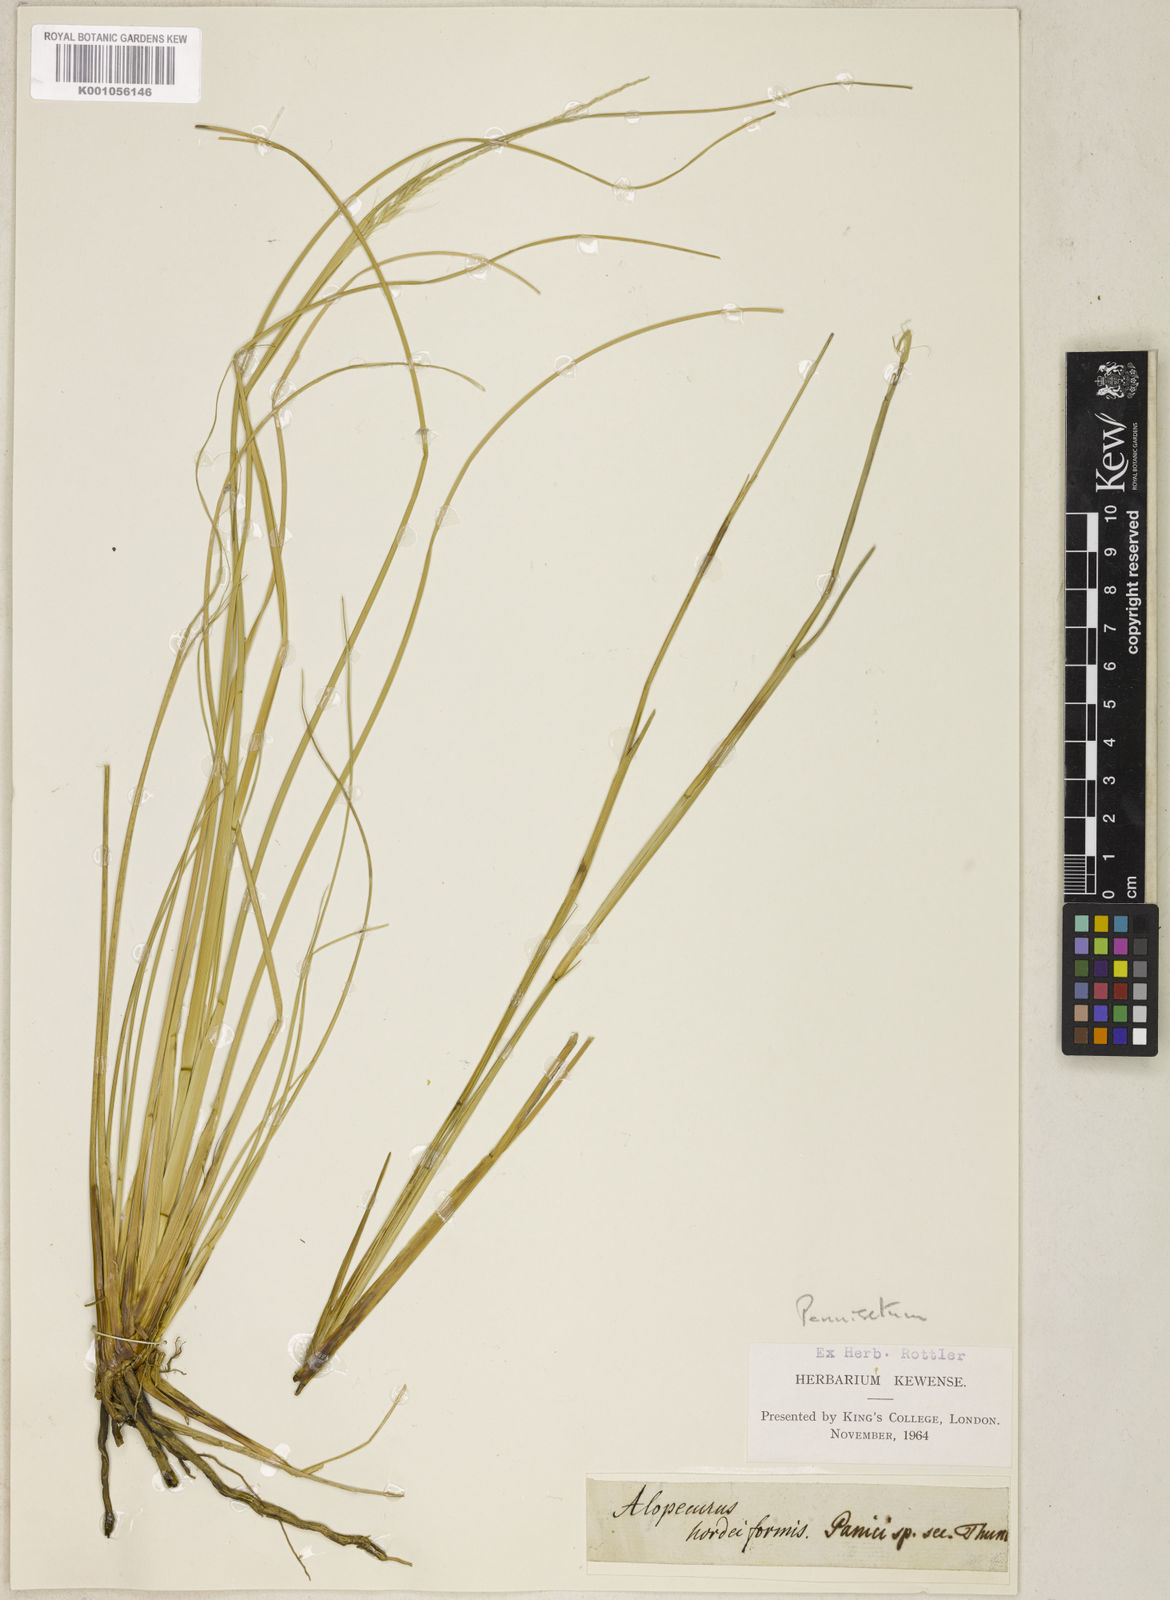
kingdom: Plantae
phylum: Tracheophyta
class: Liliopsida
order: Poales
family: Poaceae
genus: Cenchrus
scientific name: Cenchrus hohenackeri
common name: Moya grass
